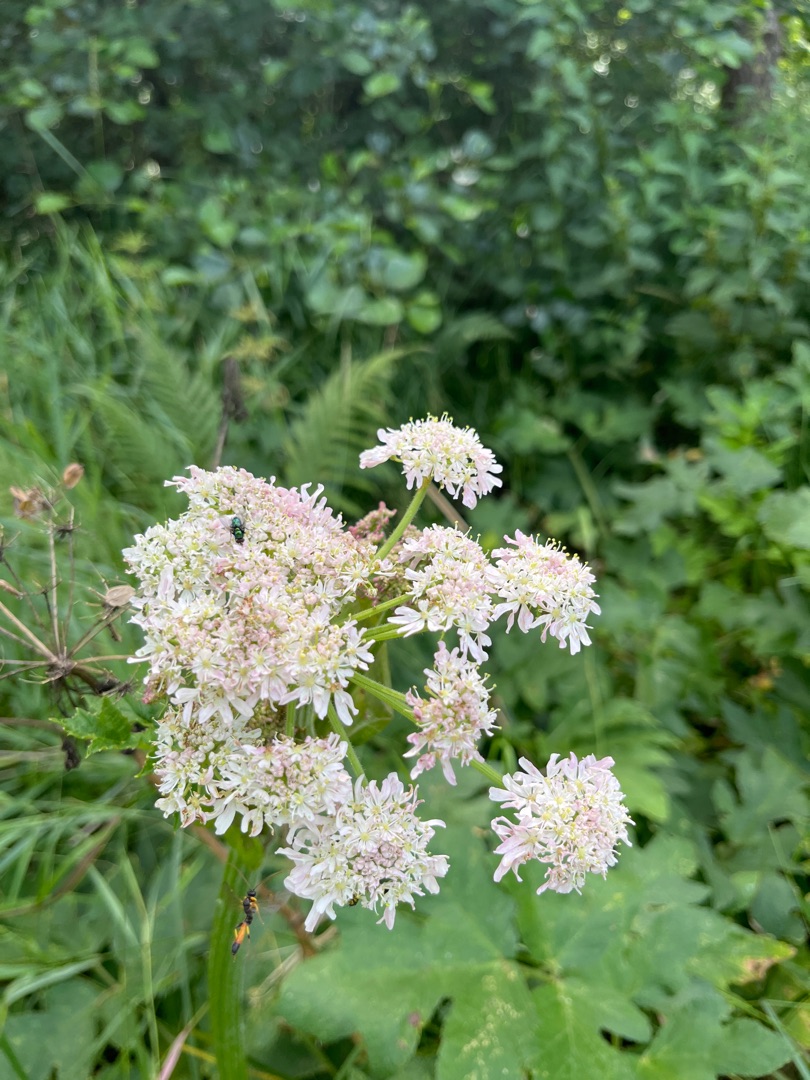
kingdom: Plantae
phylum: Tracheophyta
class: Magnoliopsida
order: Apiales
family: Apiaceae
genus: Heracleum
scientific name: Heracleum sphondylium
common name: Almindelig bjørneklo
